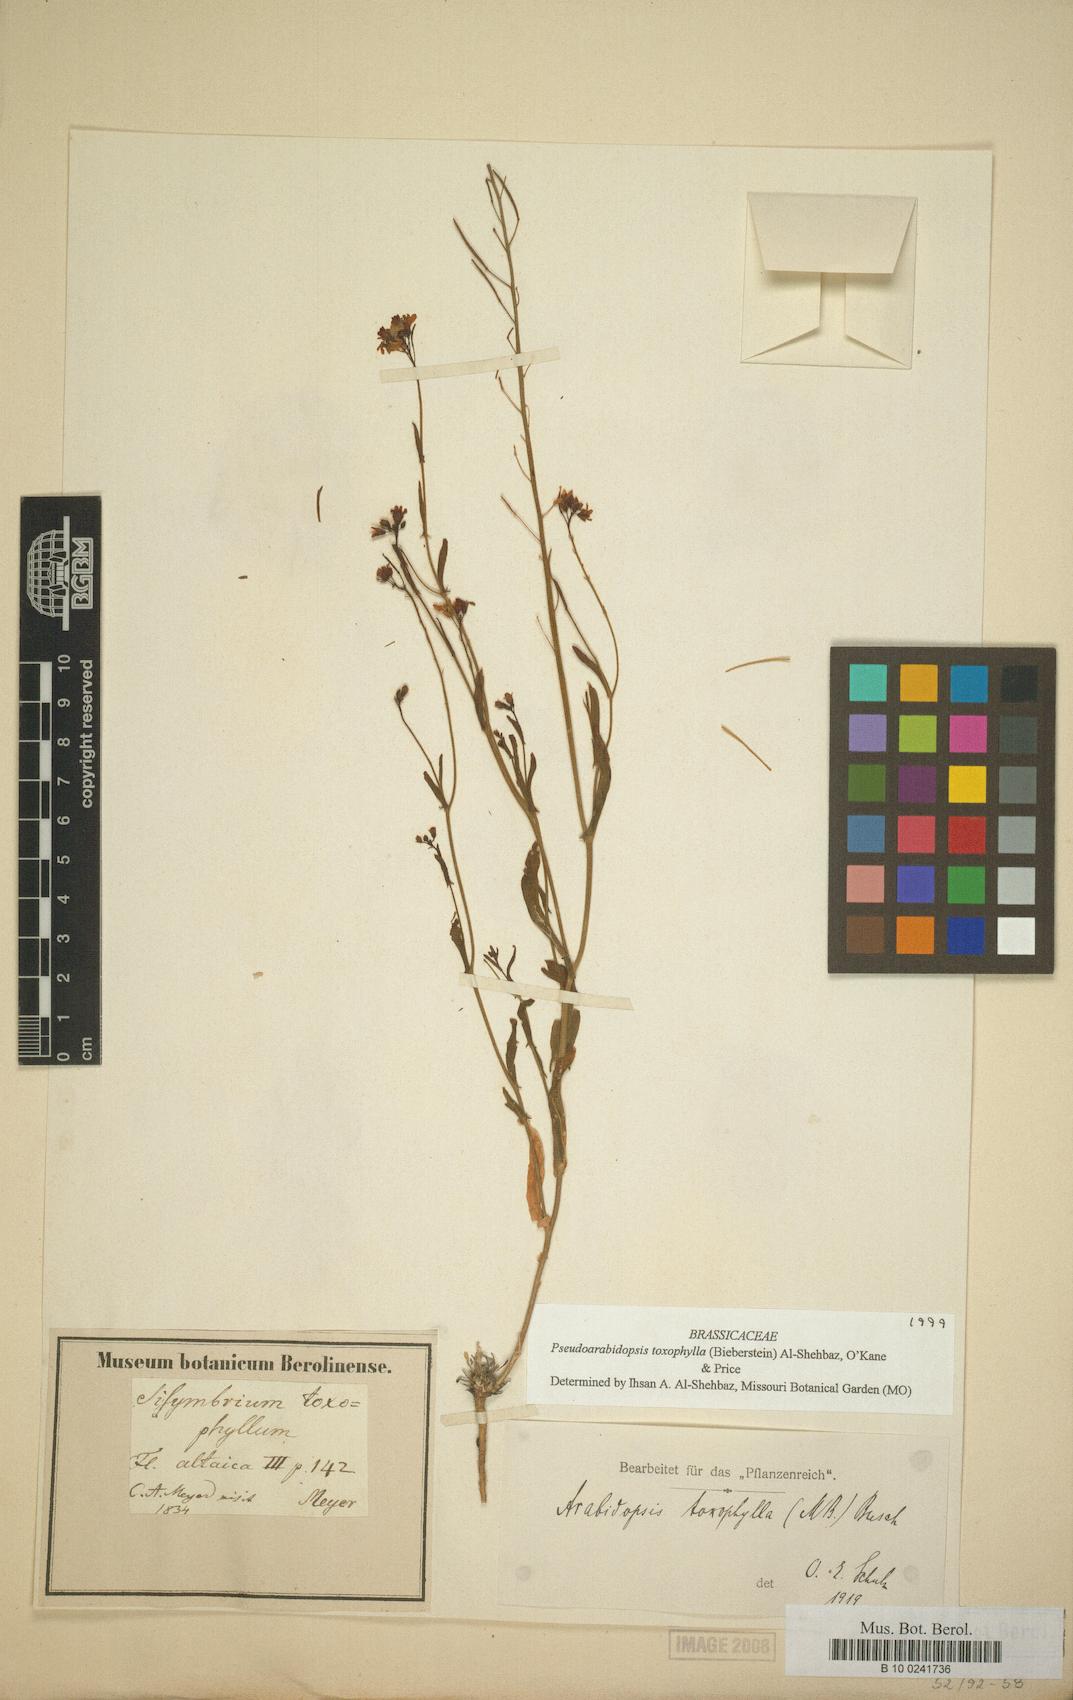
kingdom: Plantae
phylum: Tracheophyta
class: Magnoliopsida
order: Brassicales
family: Brassicaceae
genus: Pseudocamelina
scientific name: Pseudocamelina
